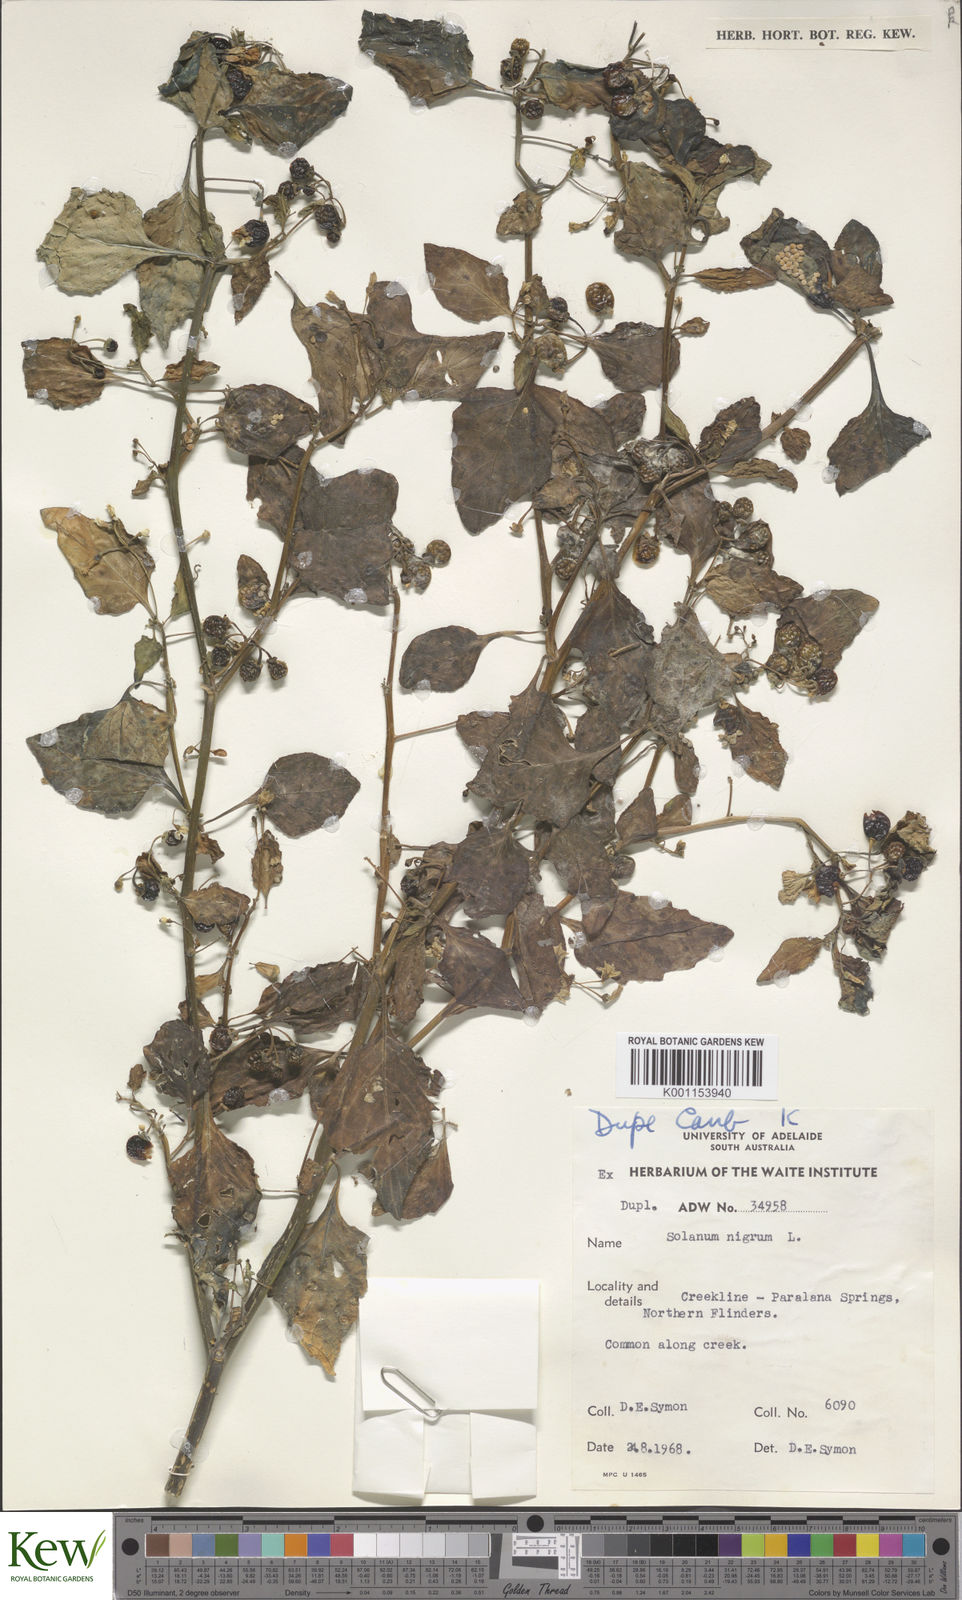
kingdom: Plantae
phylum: Tracheophyta
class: Magnoliopsida
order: Solanales
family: Solanaceae
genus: Solanum
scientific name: Solanum nigrum
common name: Black nightshade
